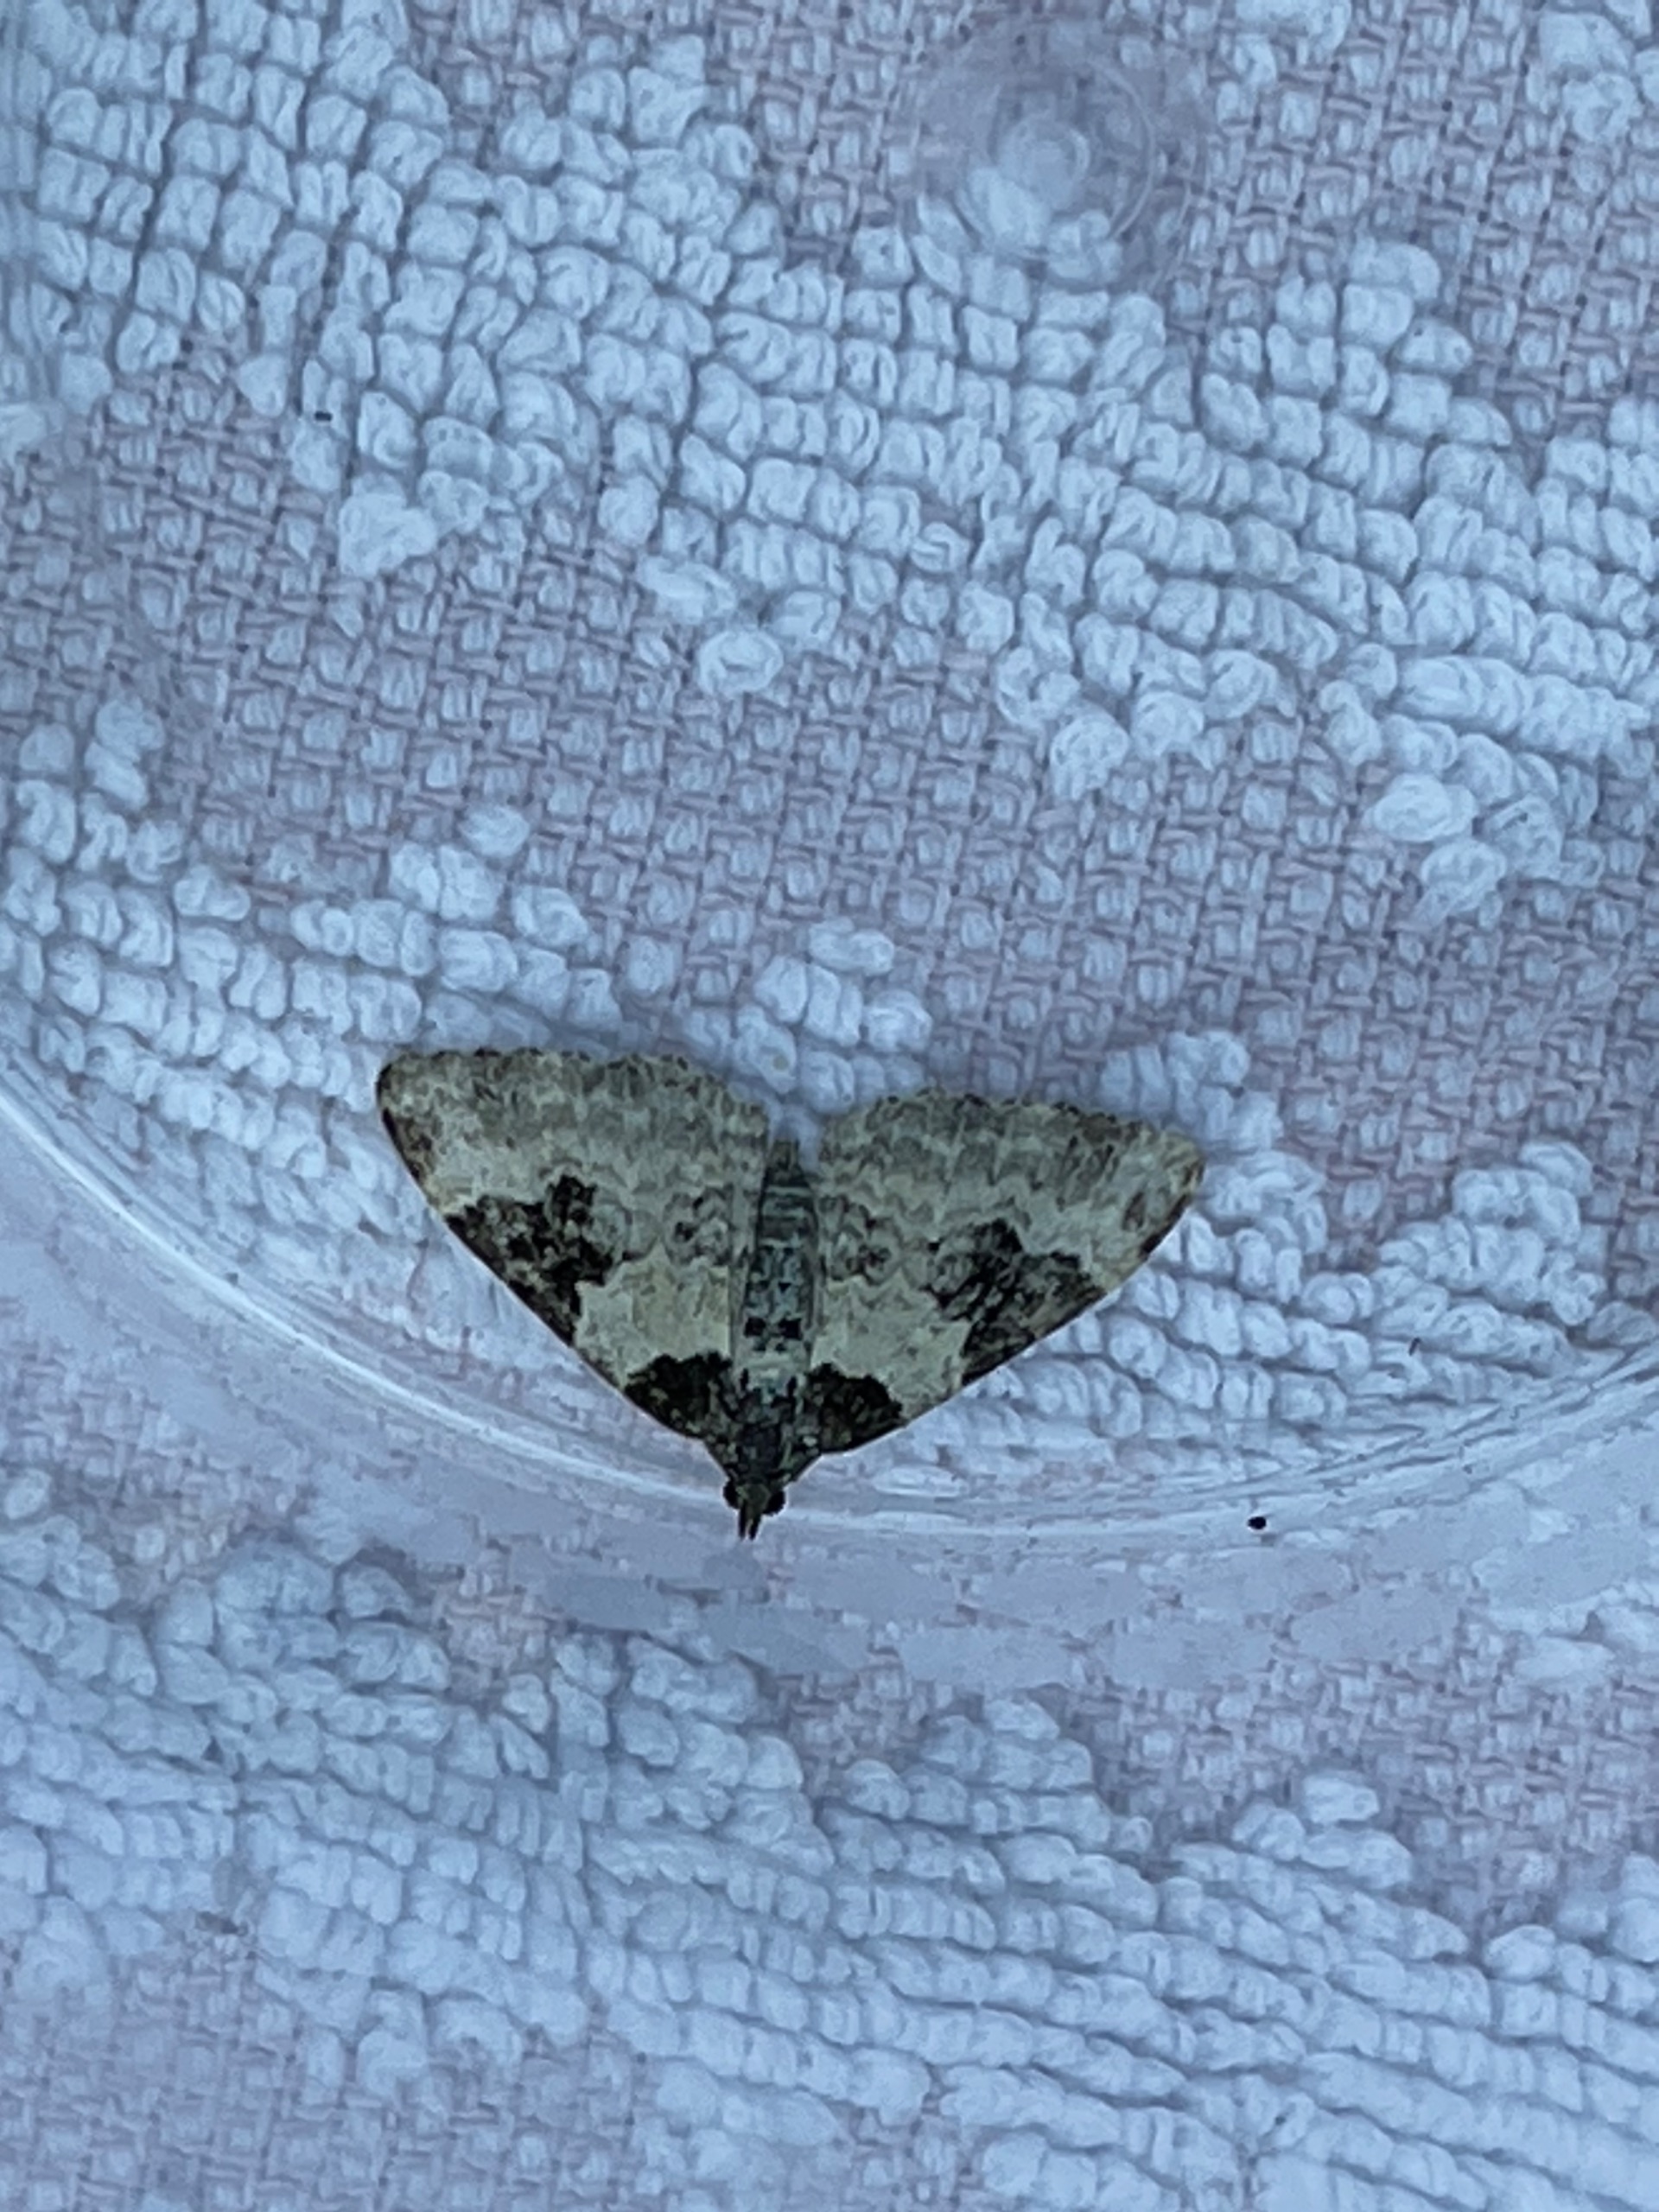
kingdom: Animalia
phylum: Arthropoda
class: Insecta
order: Lepidoptera
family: Geometridae
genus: Xanthorhoe
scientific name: Xanthorhoe fluctuata
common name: Sortbæltet bladmåler
